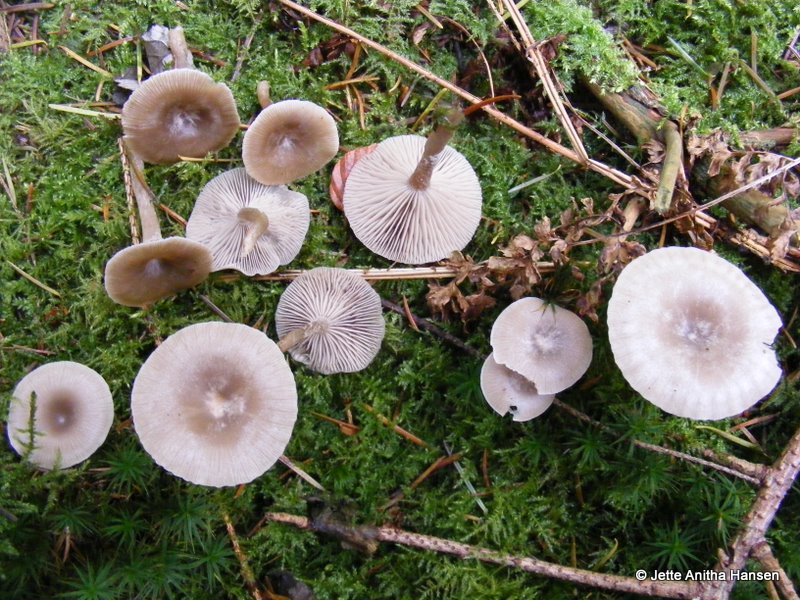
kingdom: Fungi
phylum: Basidiomycota
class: Agaricomycetes
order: Agaricales
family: Tricholomataceae
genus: Clitocybe
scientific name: Clitocybe vibecina
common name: randstribet tragthat
